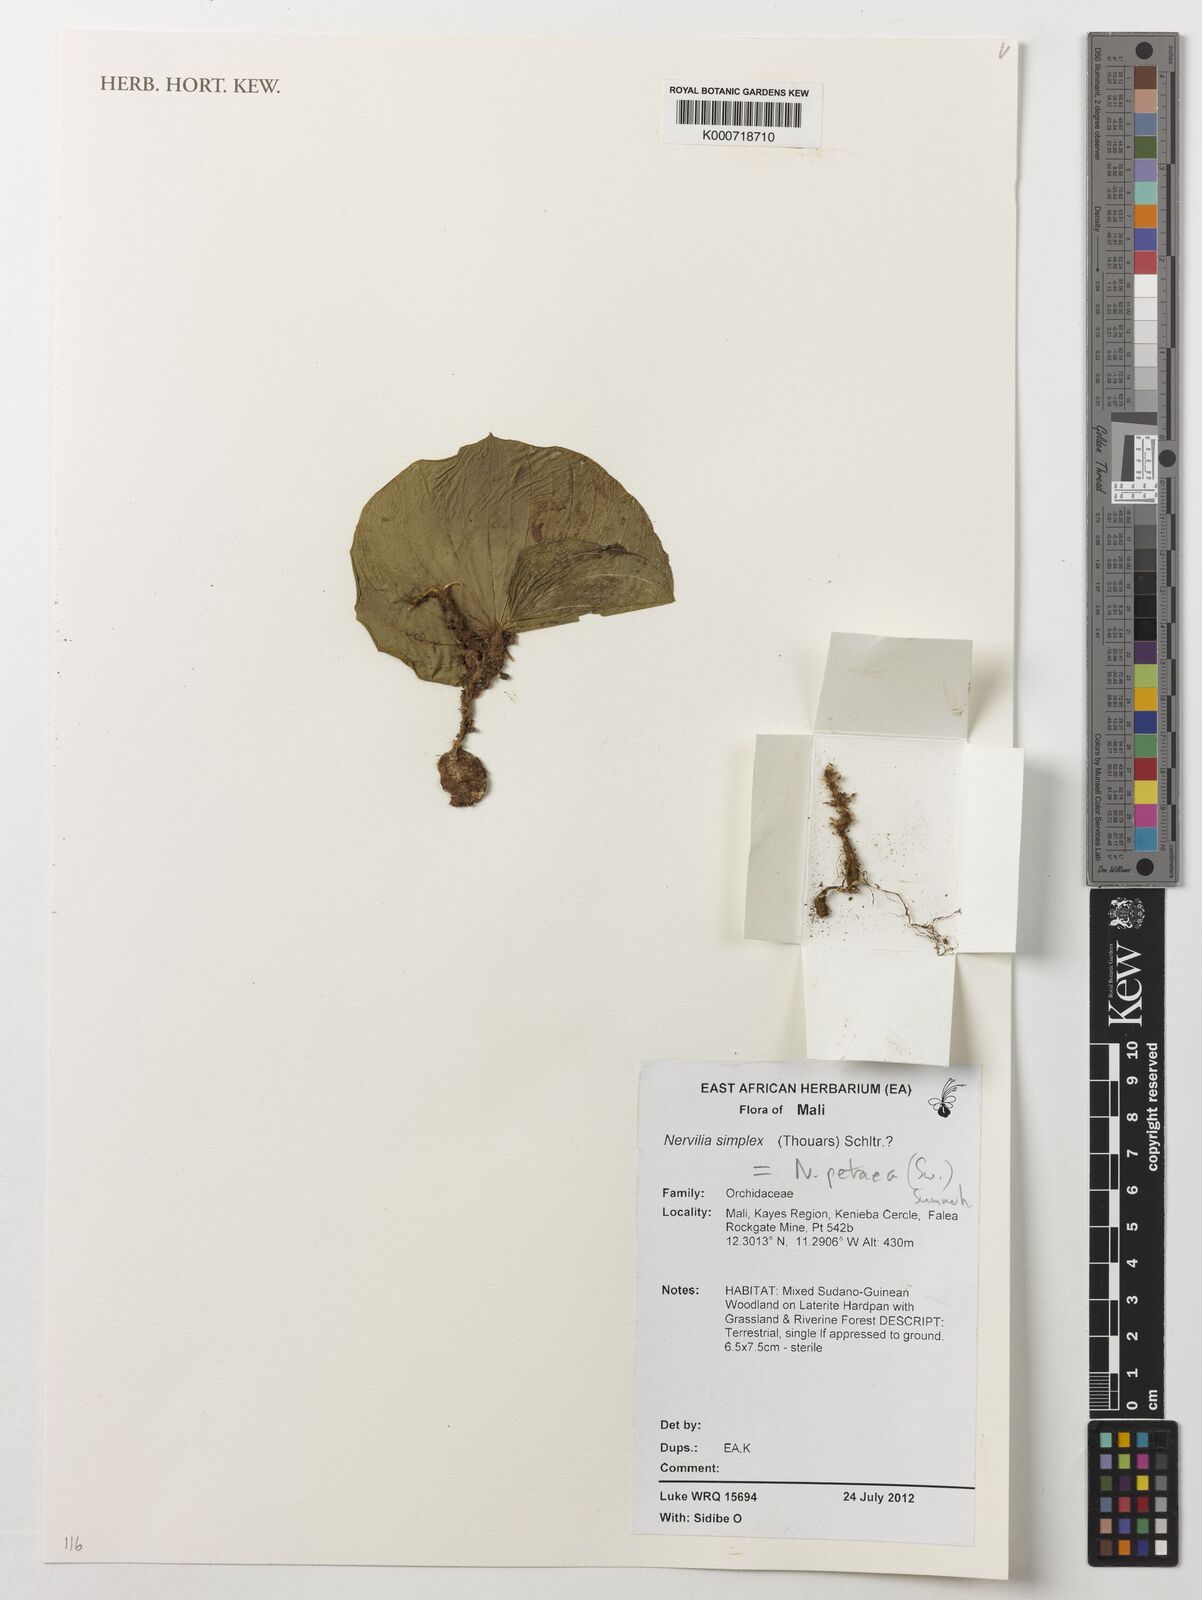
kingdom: Plantae
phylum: Tracheophyta
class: Liliopsida
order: Asparagales
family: Orchidaceae
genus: Nervilia
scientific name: Nervilia petraea
